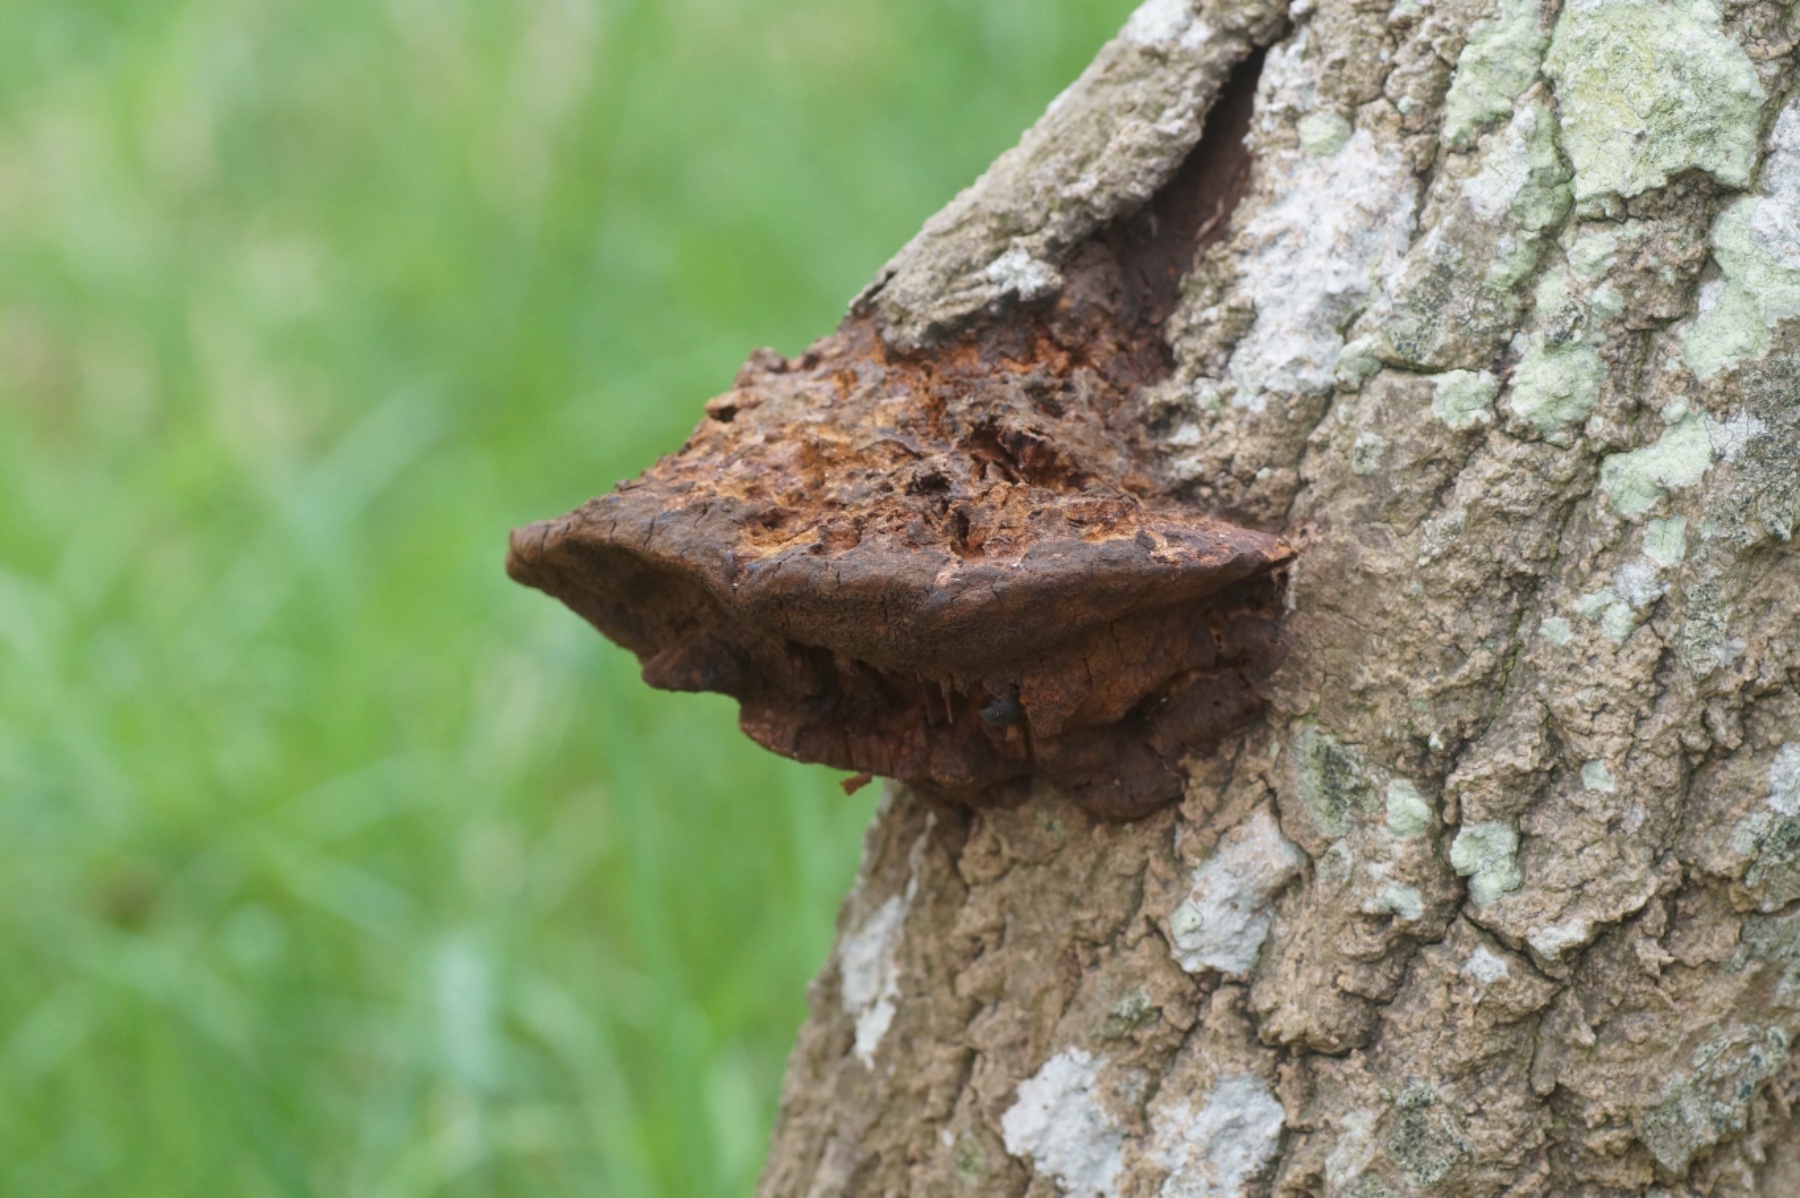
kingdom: Fungi
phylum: Basidiomycota
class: Agaricomycetes
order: Hymenochaetales
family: Hymenochaetaceae
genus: Inocutis
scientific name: Inocutis rheades
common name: ræve-spejlporesvamp
